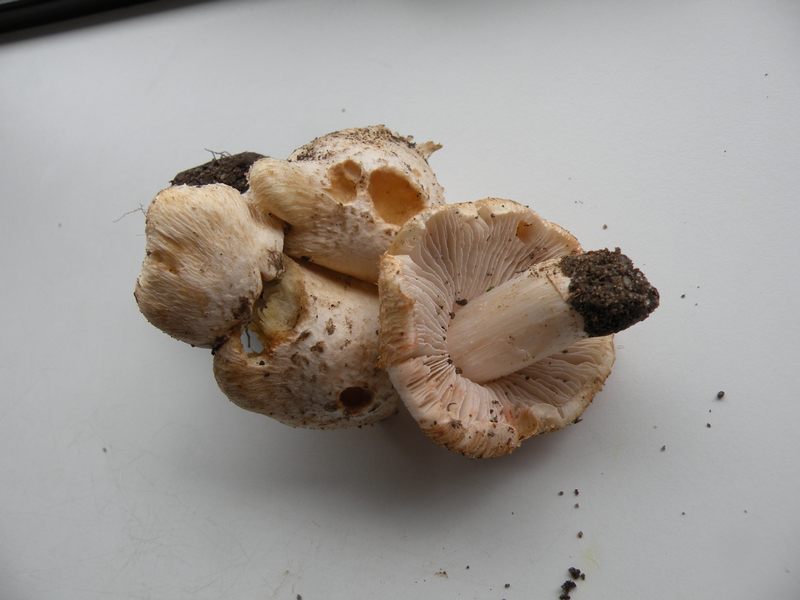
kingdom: Fungi
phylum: Basidiomycota
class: Agaricomycetes
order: Agaricales
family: Inocybaceae
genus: Inosperma
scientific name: Inosperma erubescens
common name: giftig trævlhat
